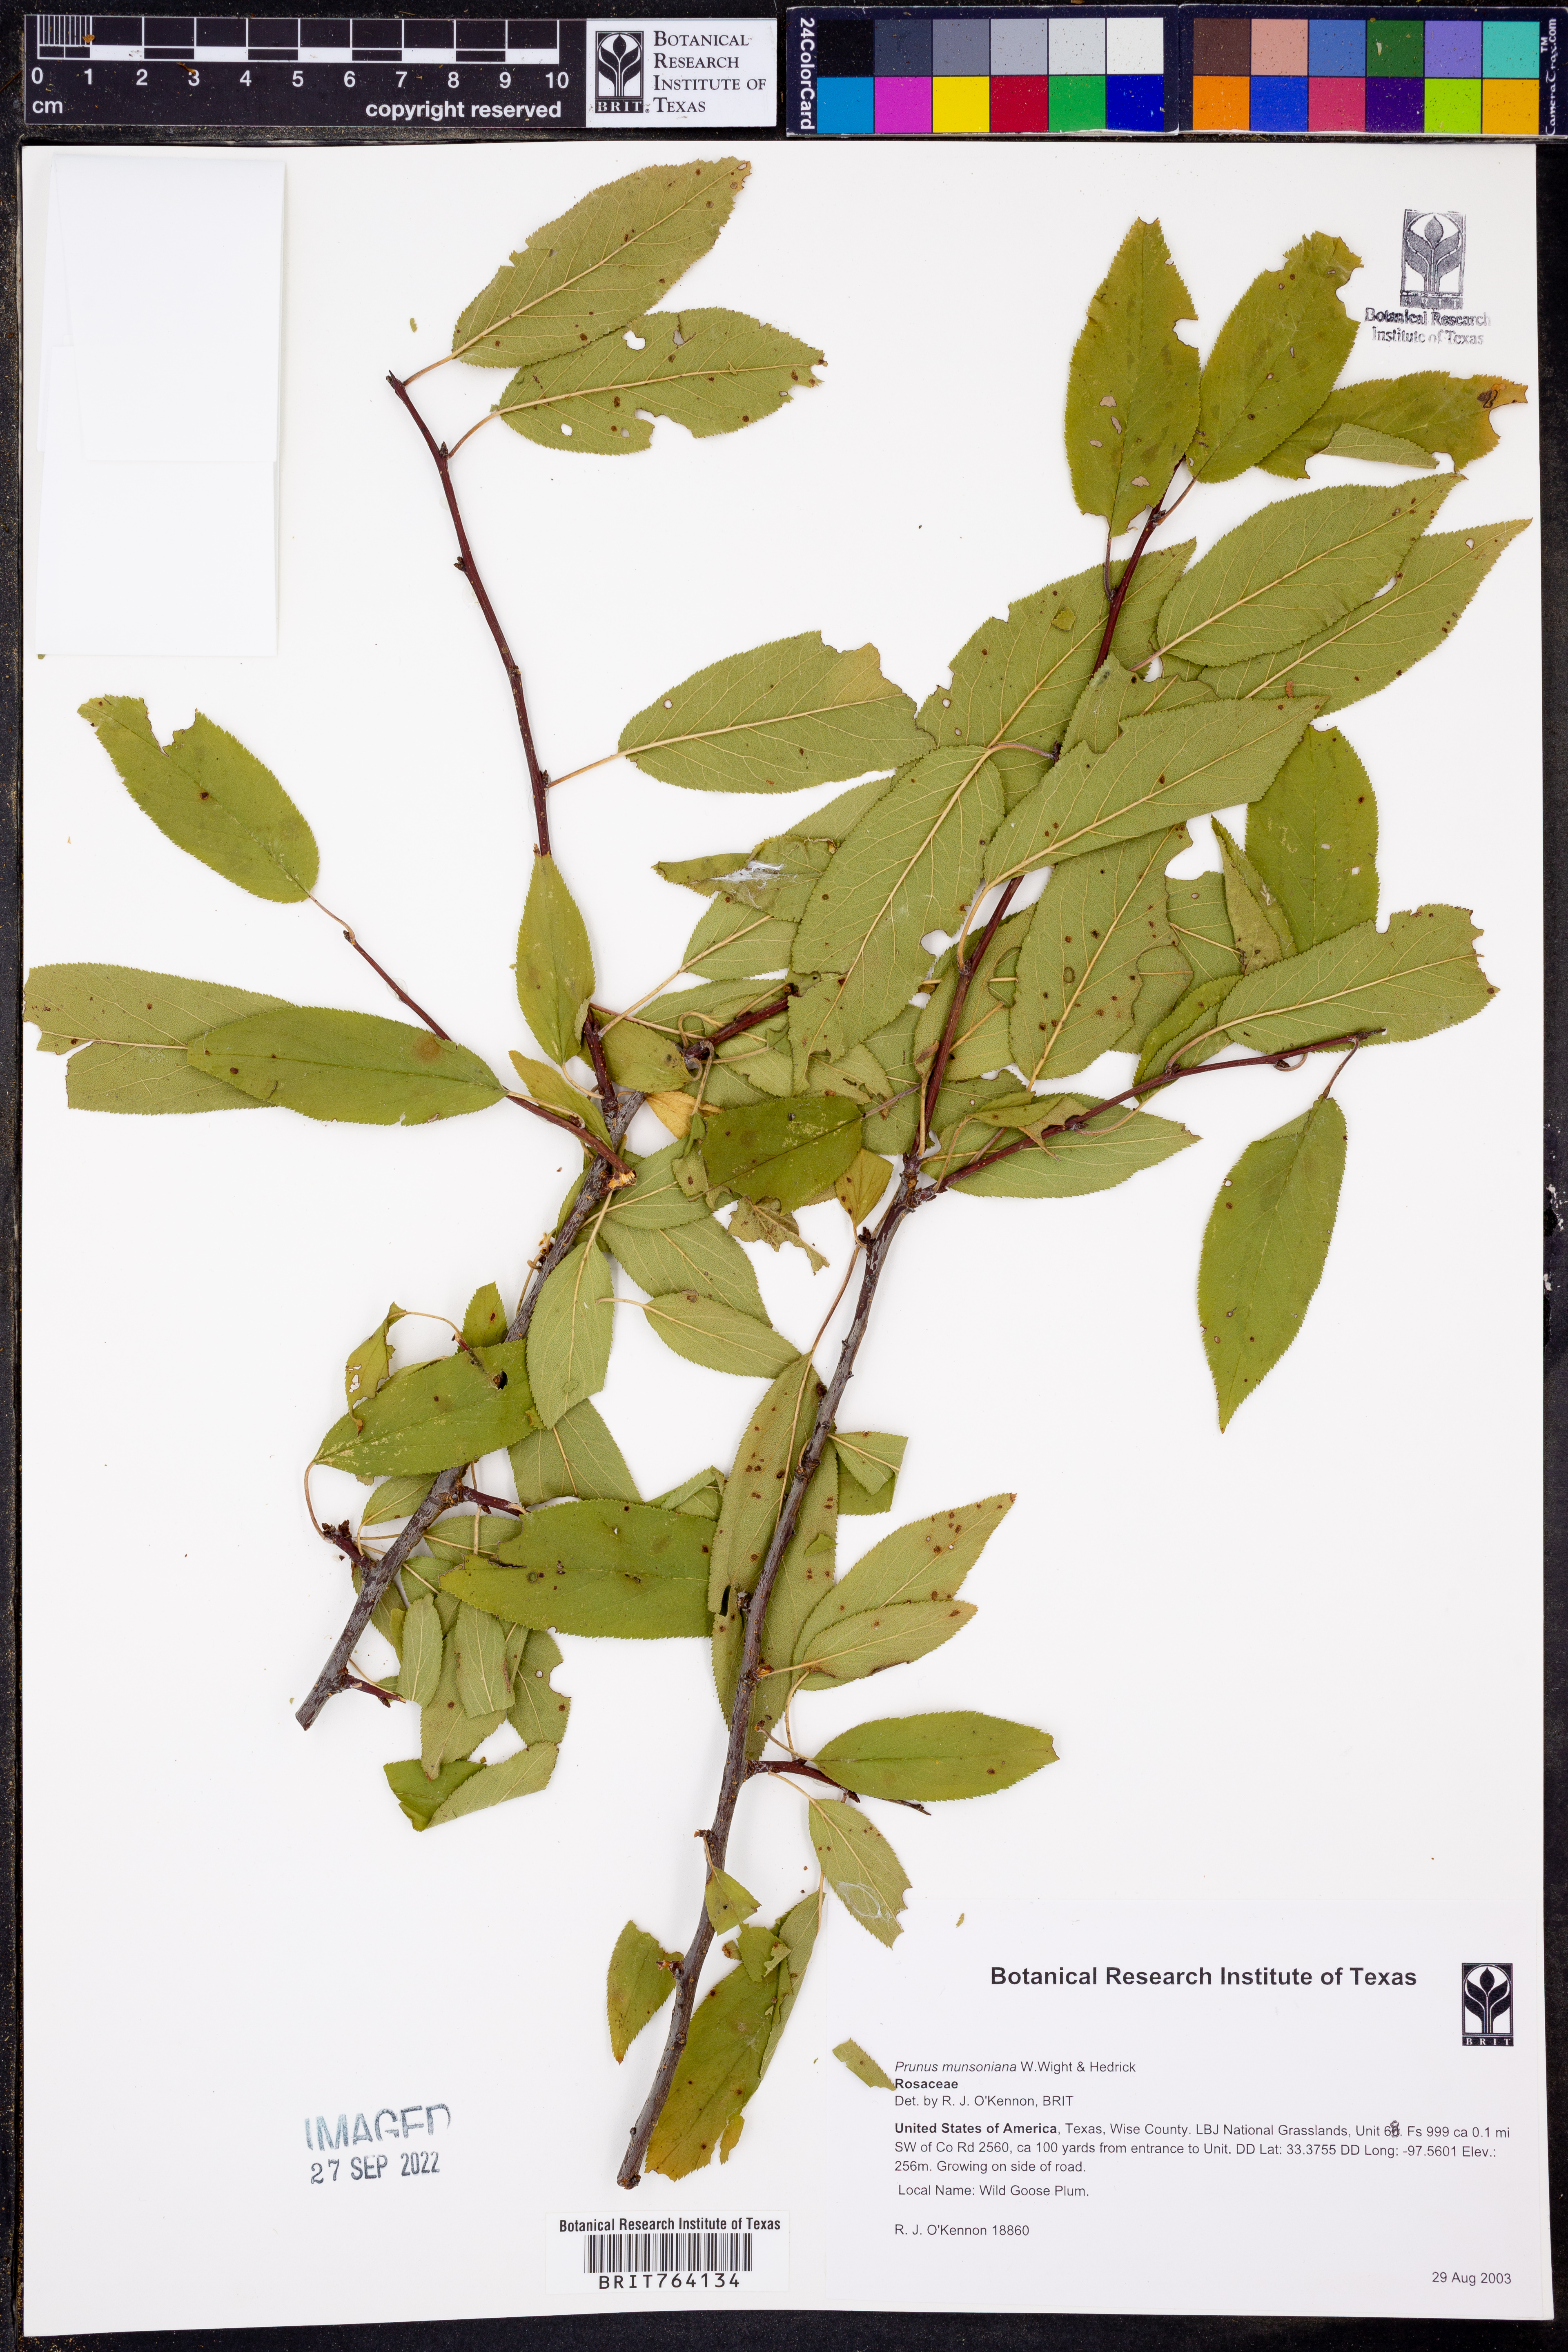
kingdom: Plantae
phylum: Tracheophyta
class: Magnoliopsida
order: Rosales
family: Rosaceae
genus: Prunus
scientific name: Prunus munsoniana
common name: Creek plum
